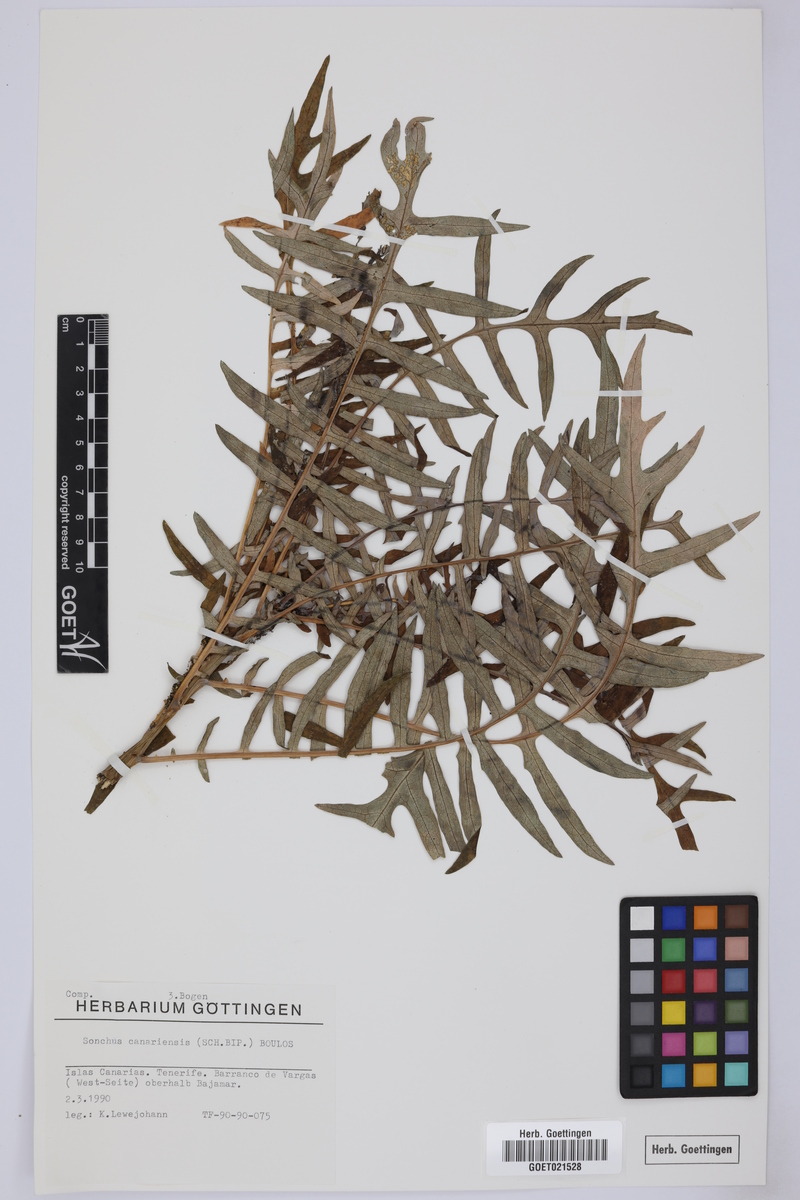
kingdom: Plantae
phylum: Tracheophyta
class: Magnoliopsida
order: Asterales
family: Asteraceae
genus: Sonchus
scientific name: Sonchus canariensis
